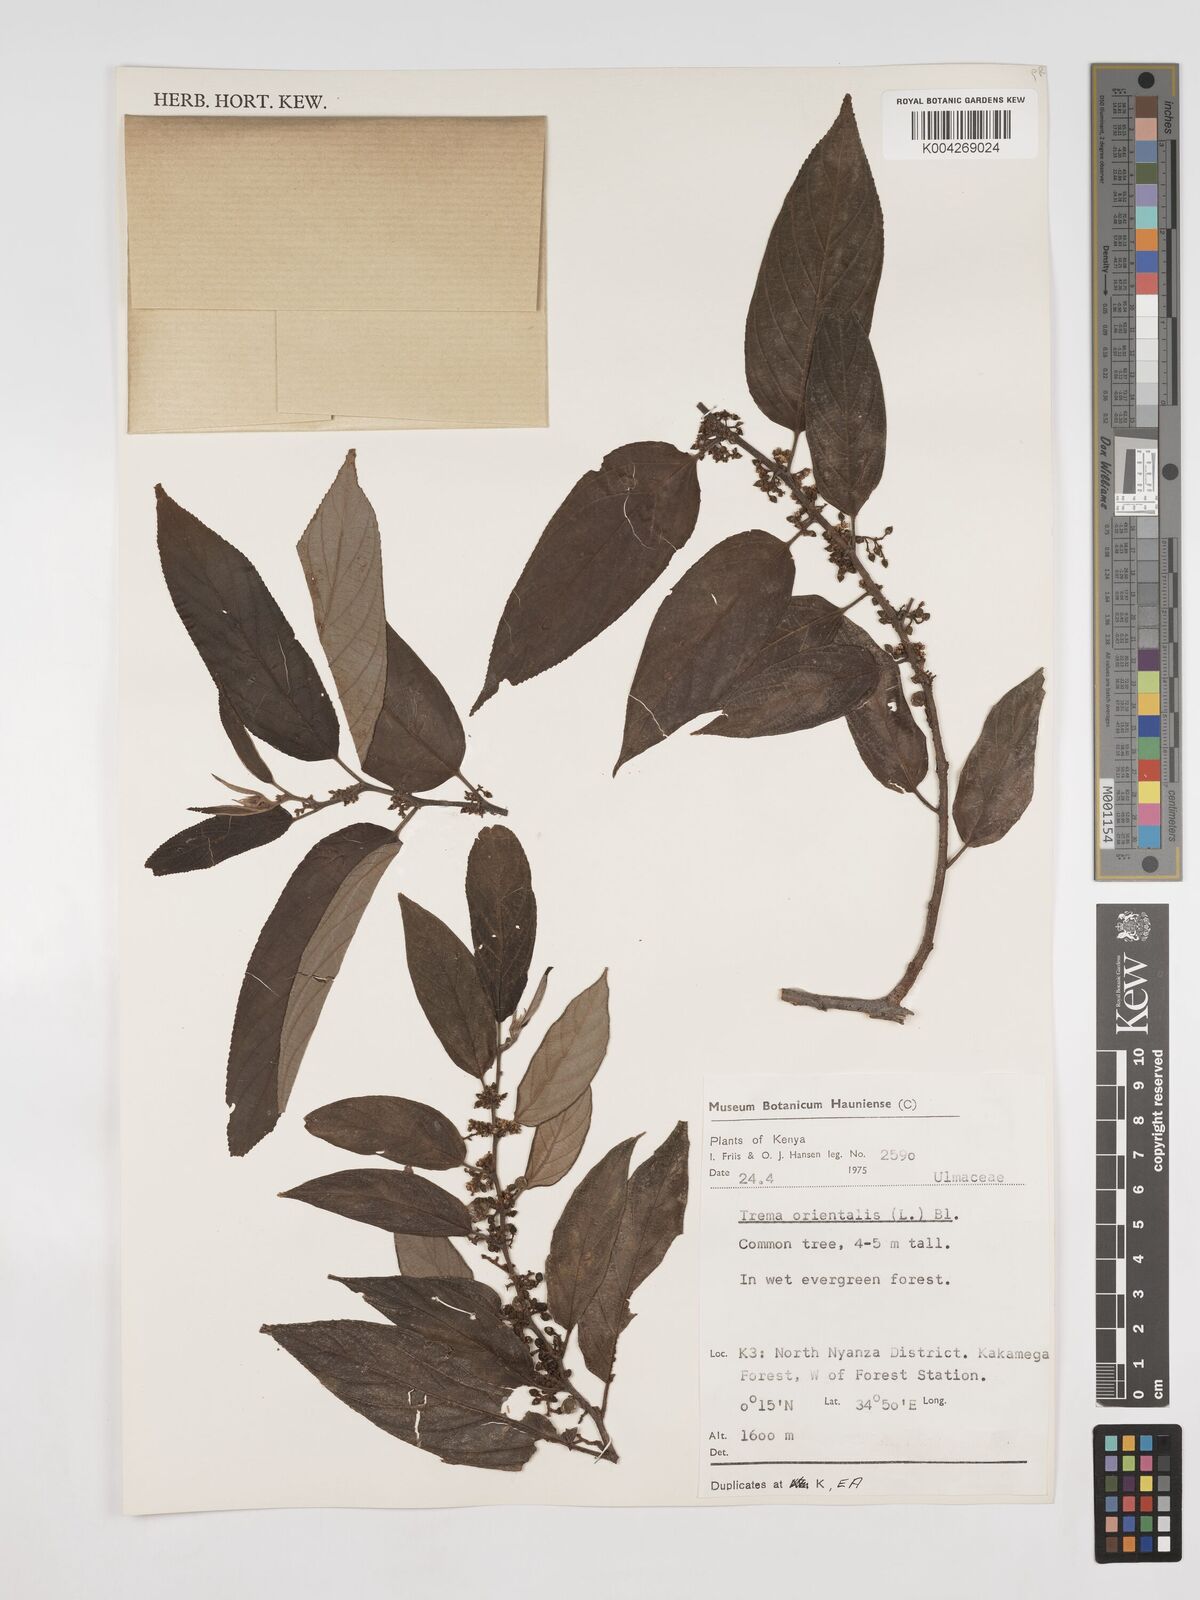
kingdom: Plantae
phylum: Tracheophyta
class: Magnoliopsida
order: Rosales
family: Cannabaceae
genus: Trema
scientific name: Trema orientale
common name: Indian charcoal tree
